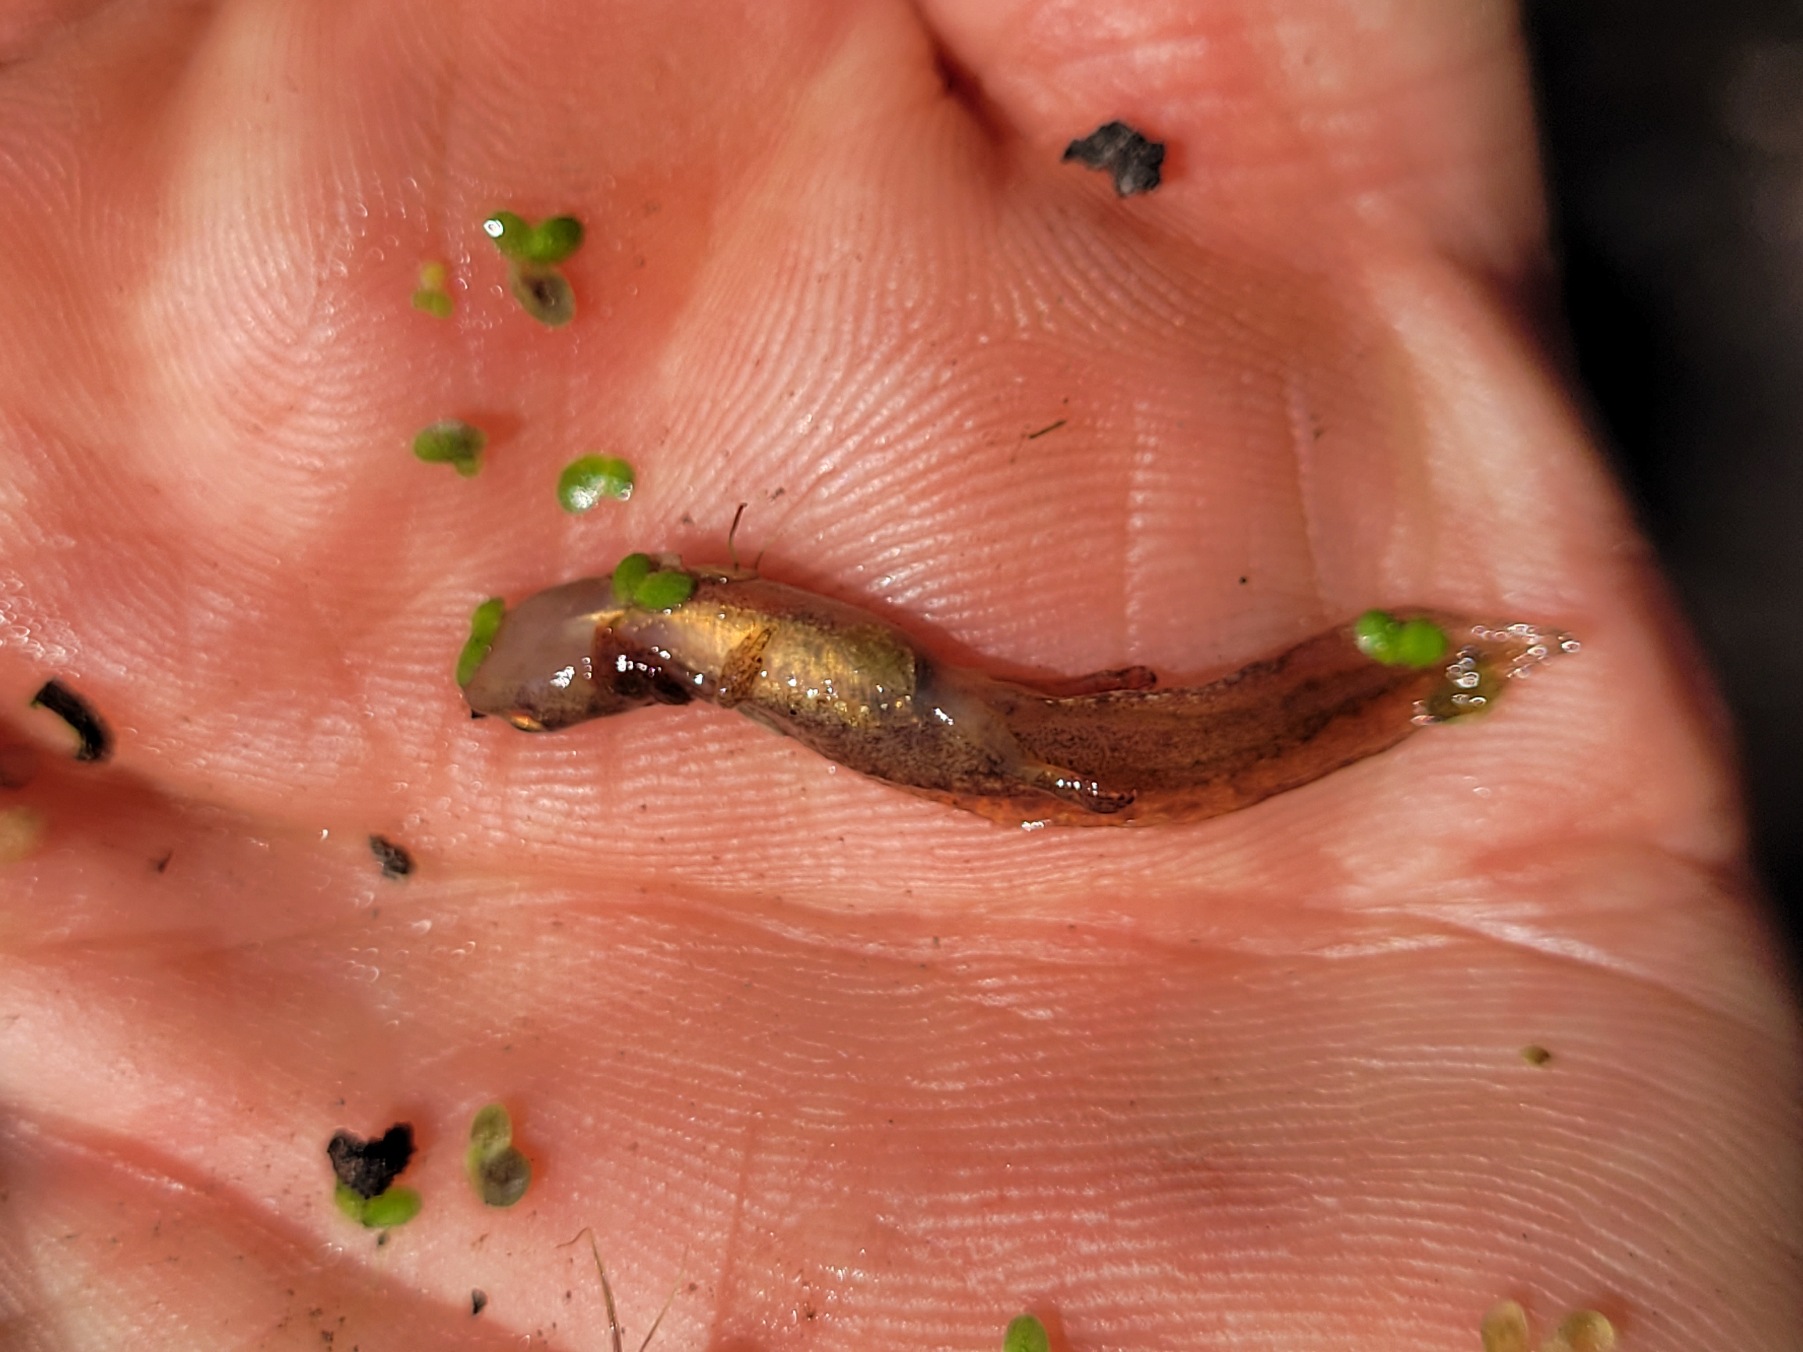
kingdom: Animalia
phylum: Chordata
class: Amphibia
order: Caudata
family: Salamandridae
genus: Lissotriton
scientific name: Lissotriton vulgaris
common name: Lille vandsalamander
